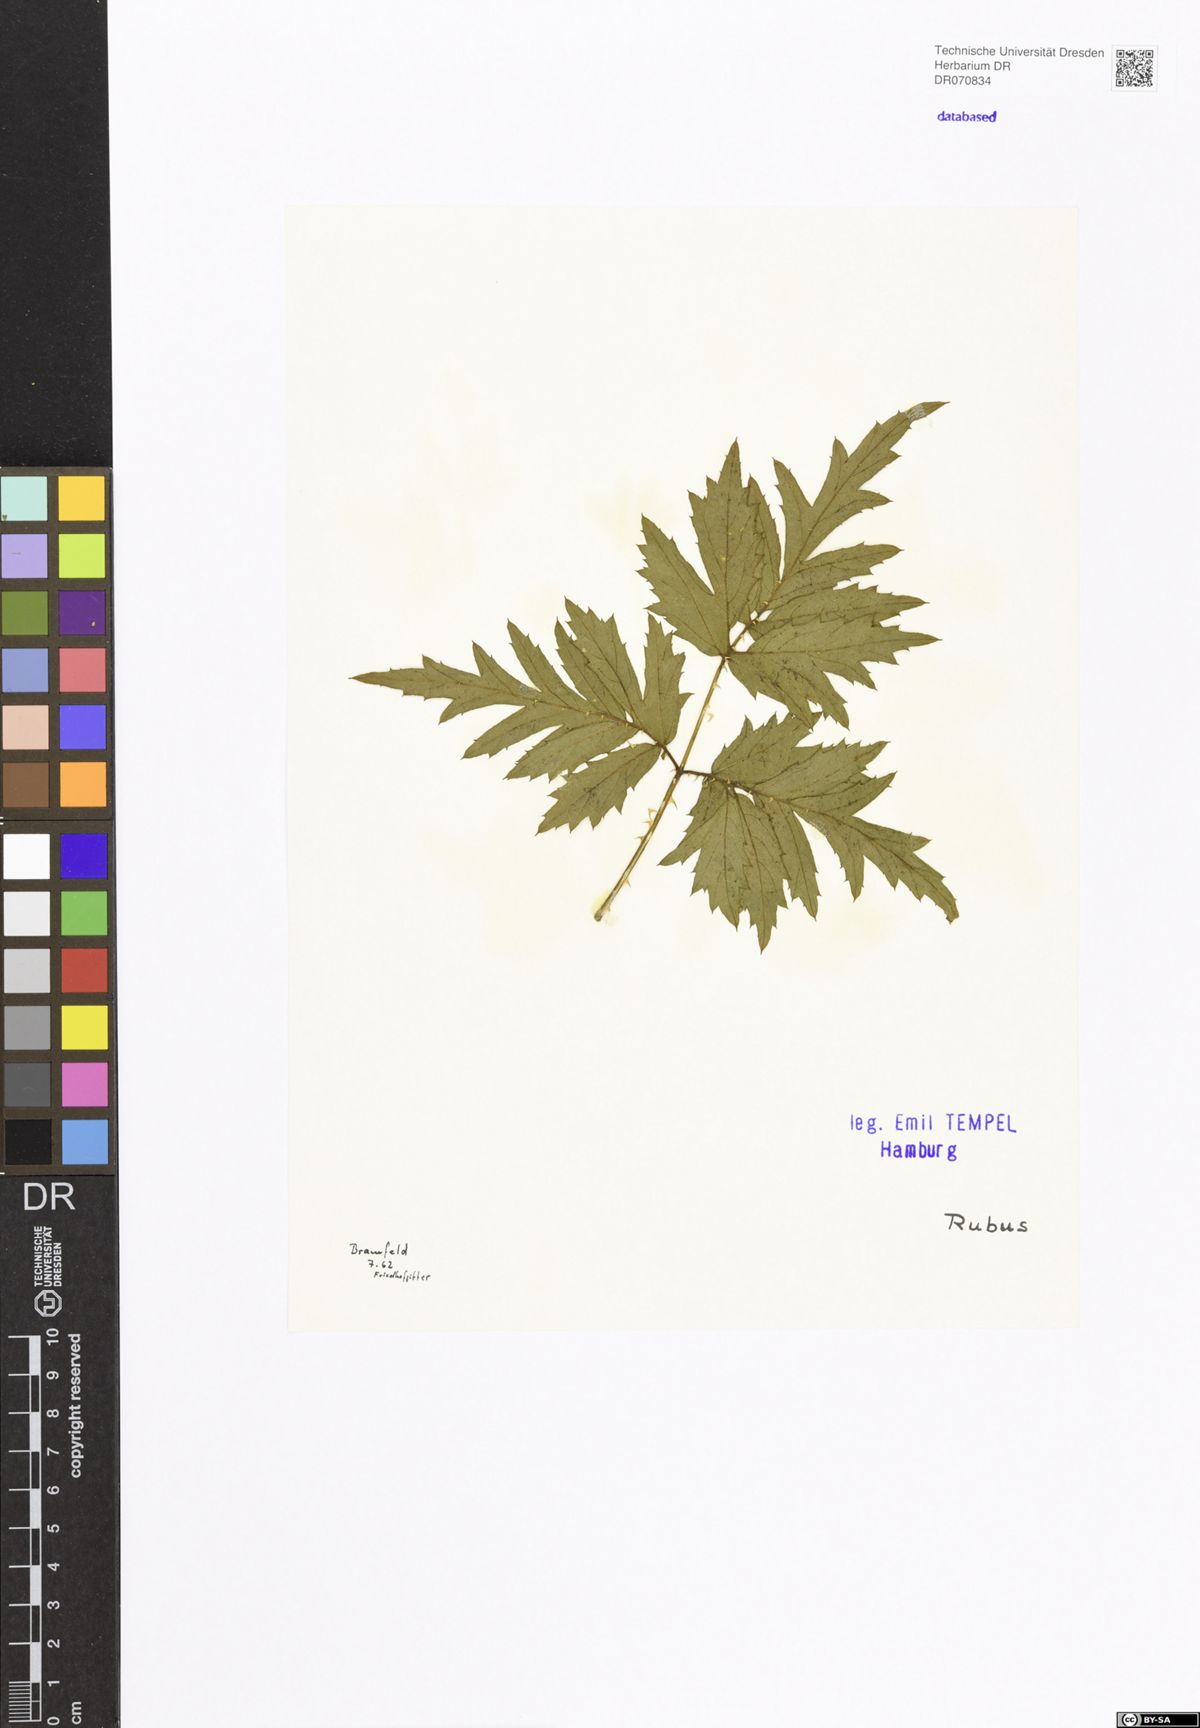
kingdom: Plantae
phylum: Tracheophyta
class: Magnoliopsida
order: Rosales
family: Rosaceae
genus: Rubus
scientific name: Rubus
